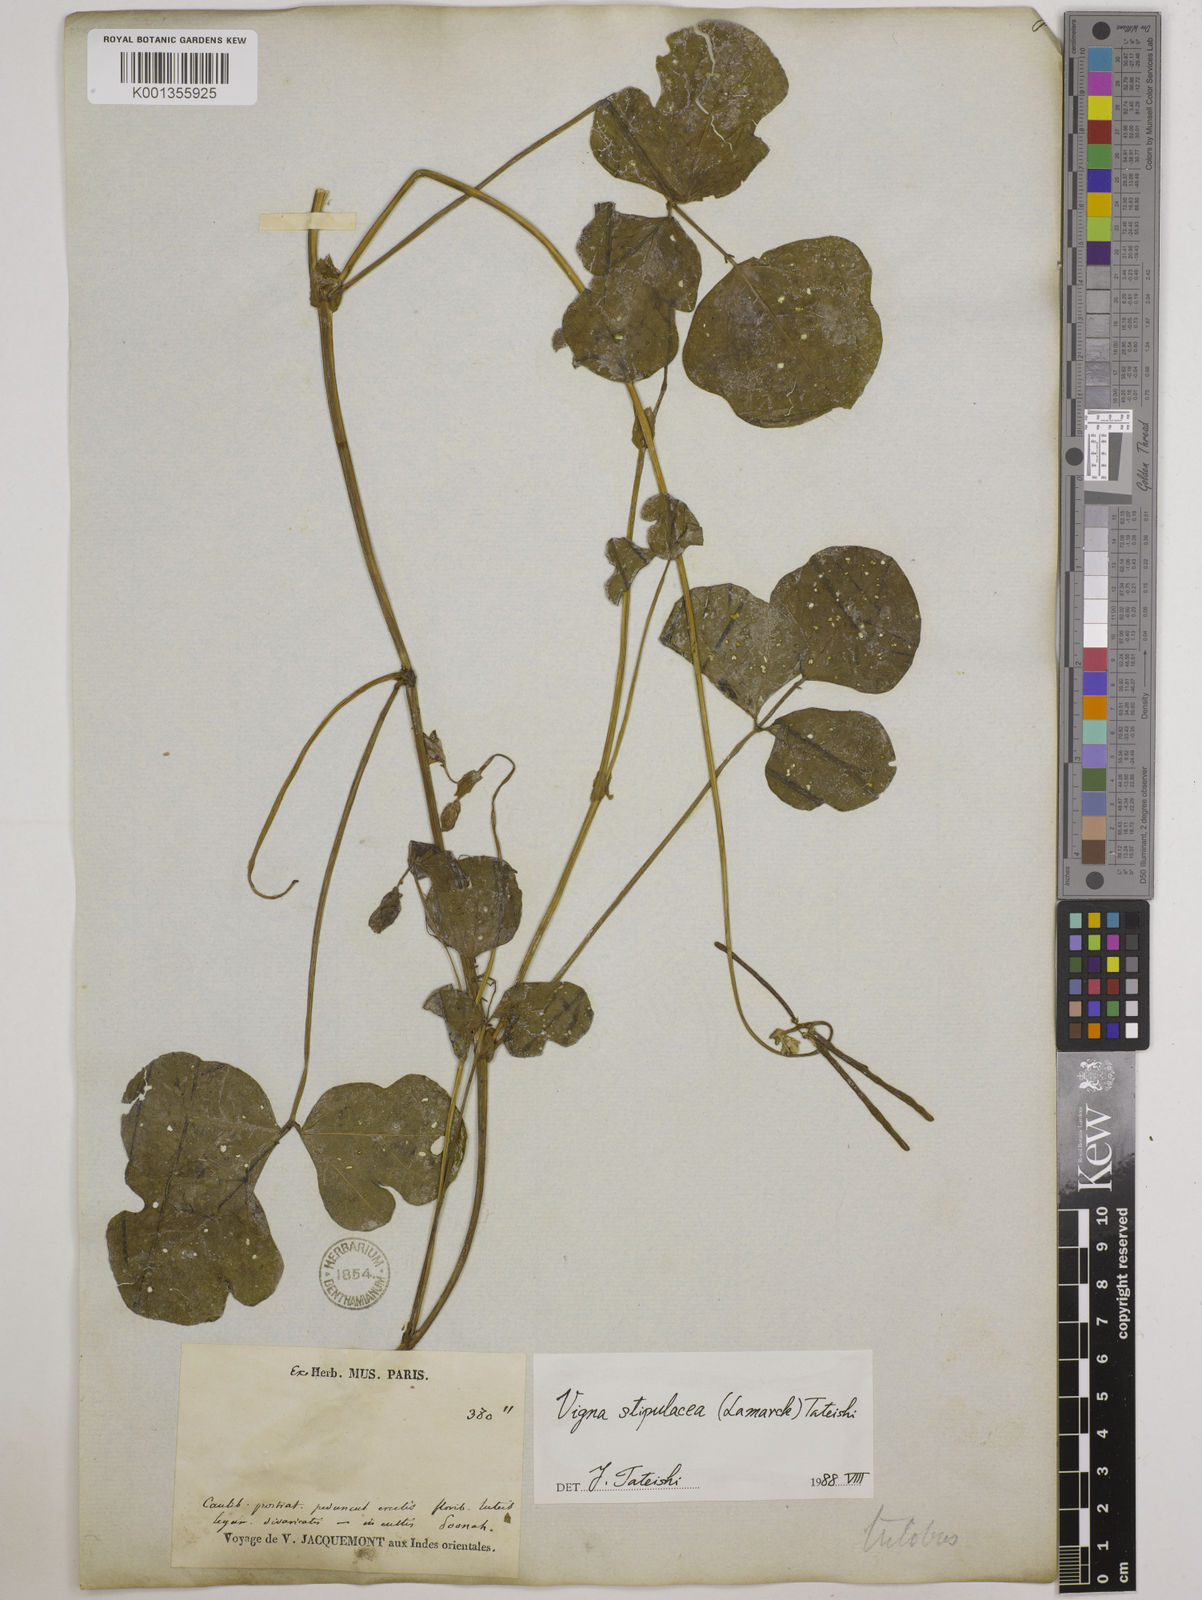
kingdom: Plantae
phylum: Tracheophyta
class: Magnoliopsida
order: Fabales
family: Fabaceae
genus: Pueraria
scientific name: Pueraria montana
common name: Kudzu
